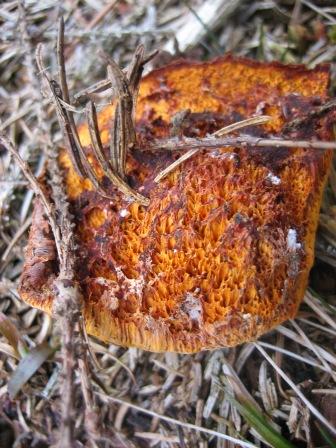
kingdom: Fungi
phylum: Basidiomycota
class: Agaricomycetes
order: Polyporales
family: Pycnoporellaceae
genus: Pycnoporellus
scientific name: Pycnoporellus fulgens
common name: flammeporesvamp
